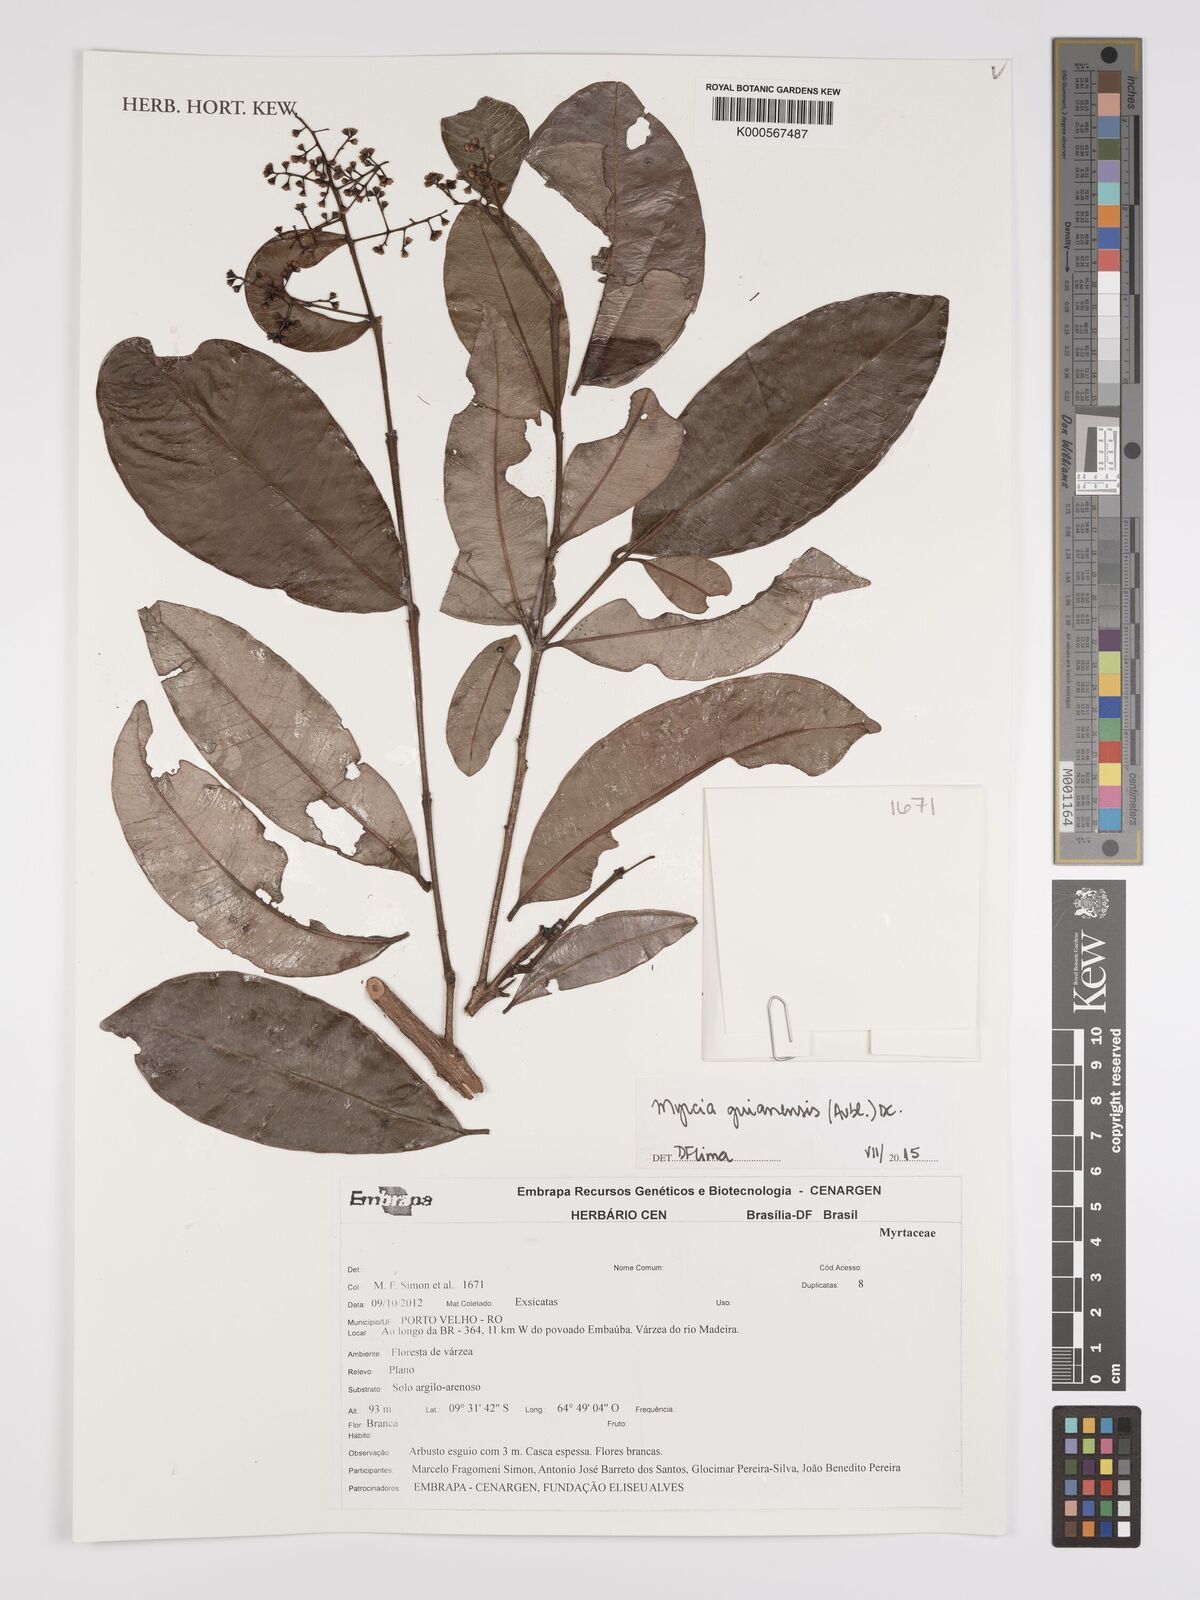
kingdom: Plantae
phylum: Tracheophyta
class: Magnoliopsida
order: Myrtales
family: Myrtaceae
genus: Myrcia
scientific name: Myrcia guianensis
